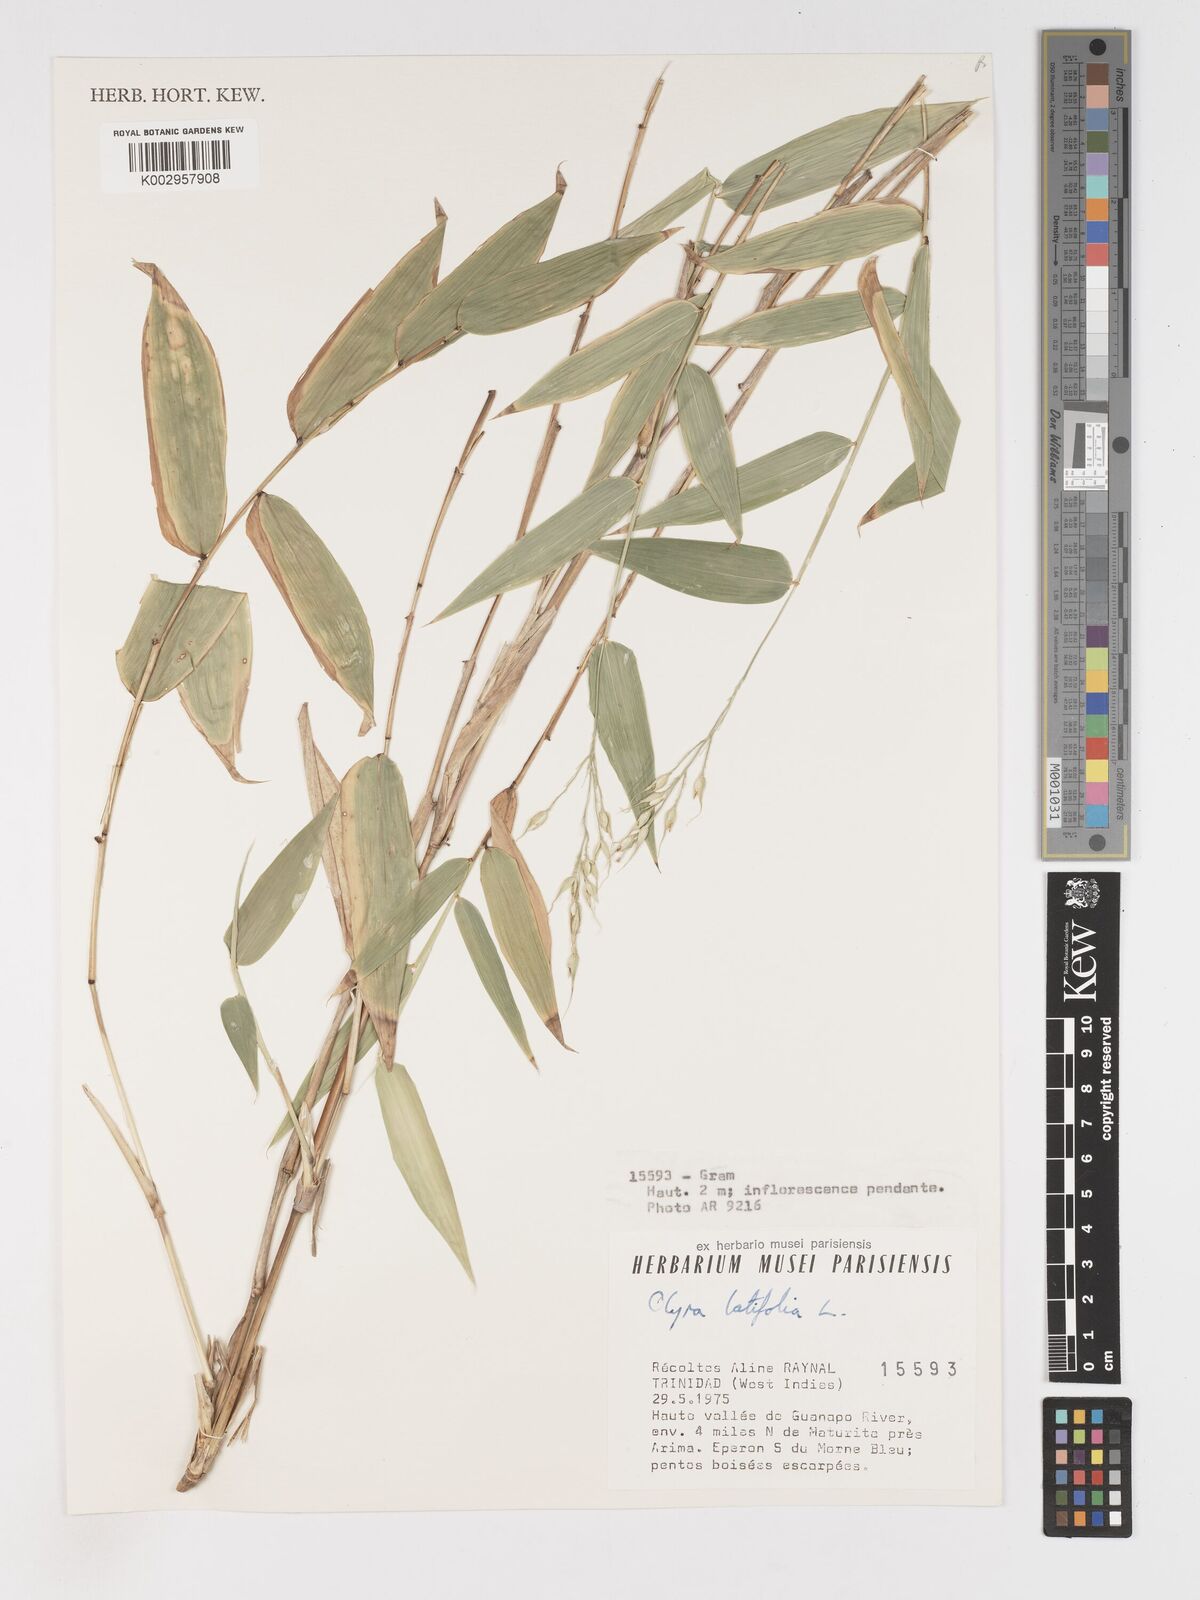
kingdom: Plantae
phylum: Tracheophyta
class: Liliopsida
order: Poales
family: Poaceae
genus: Olyra
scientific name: Olyra latifolia
